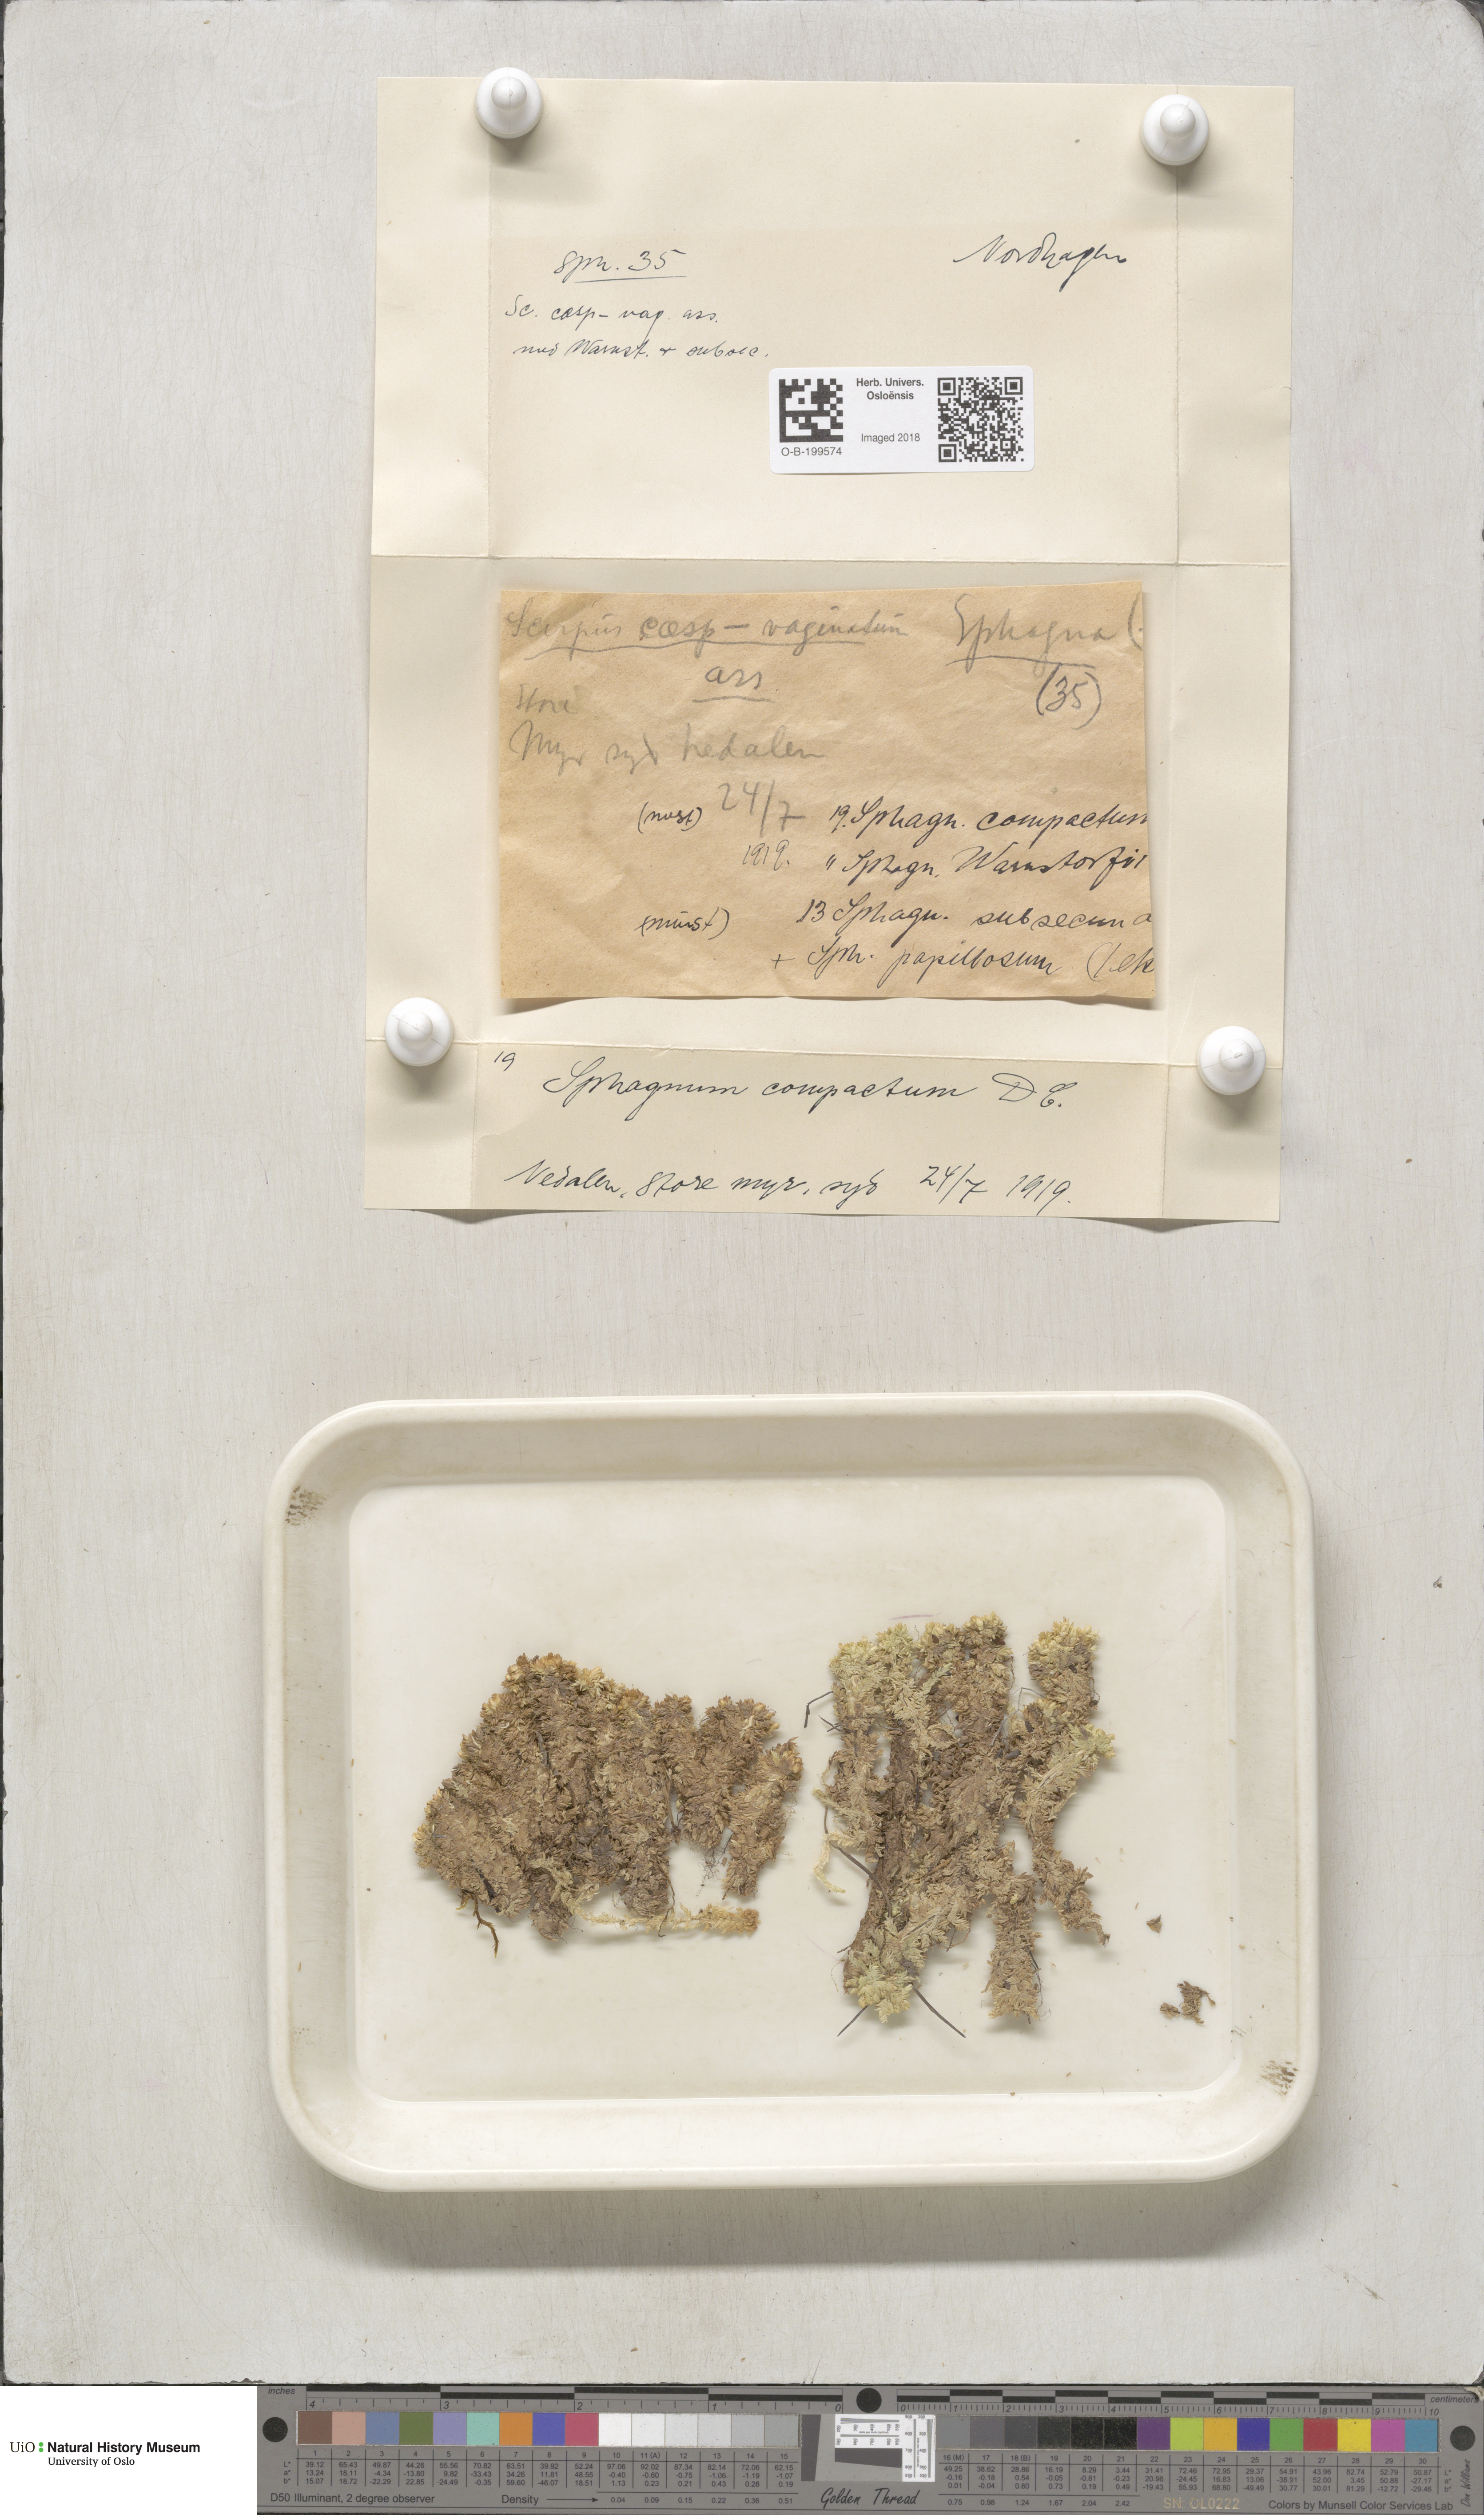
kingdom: Plantae
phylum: Bryophyta
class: Sphagnopsida
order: Sphagnales
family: Sphagnaceae
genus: Sphagnum
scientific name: Sphagnum compactum
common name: Compact peat moss
